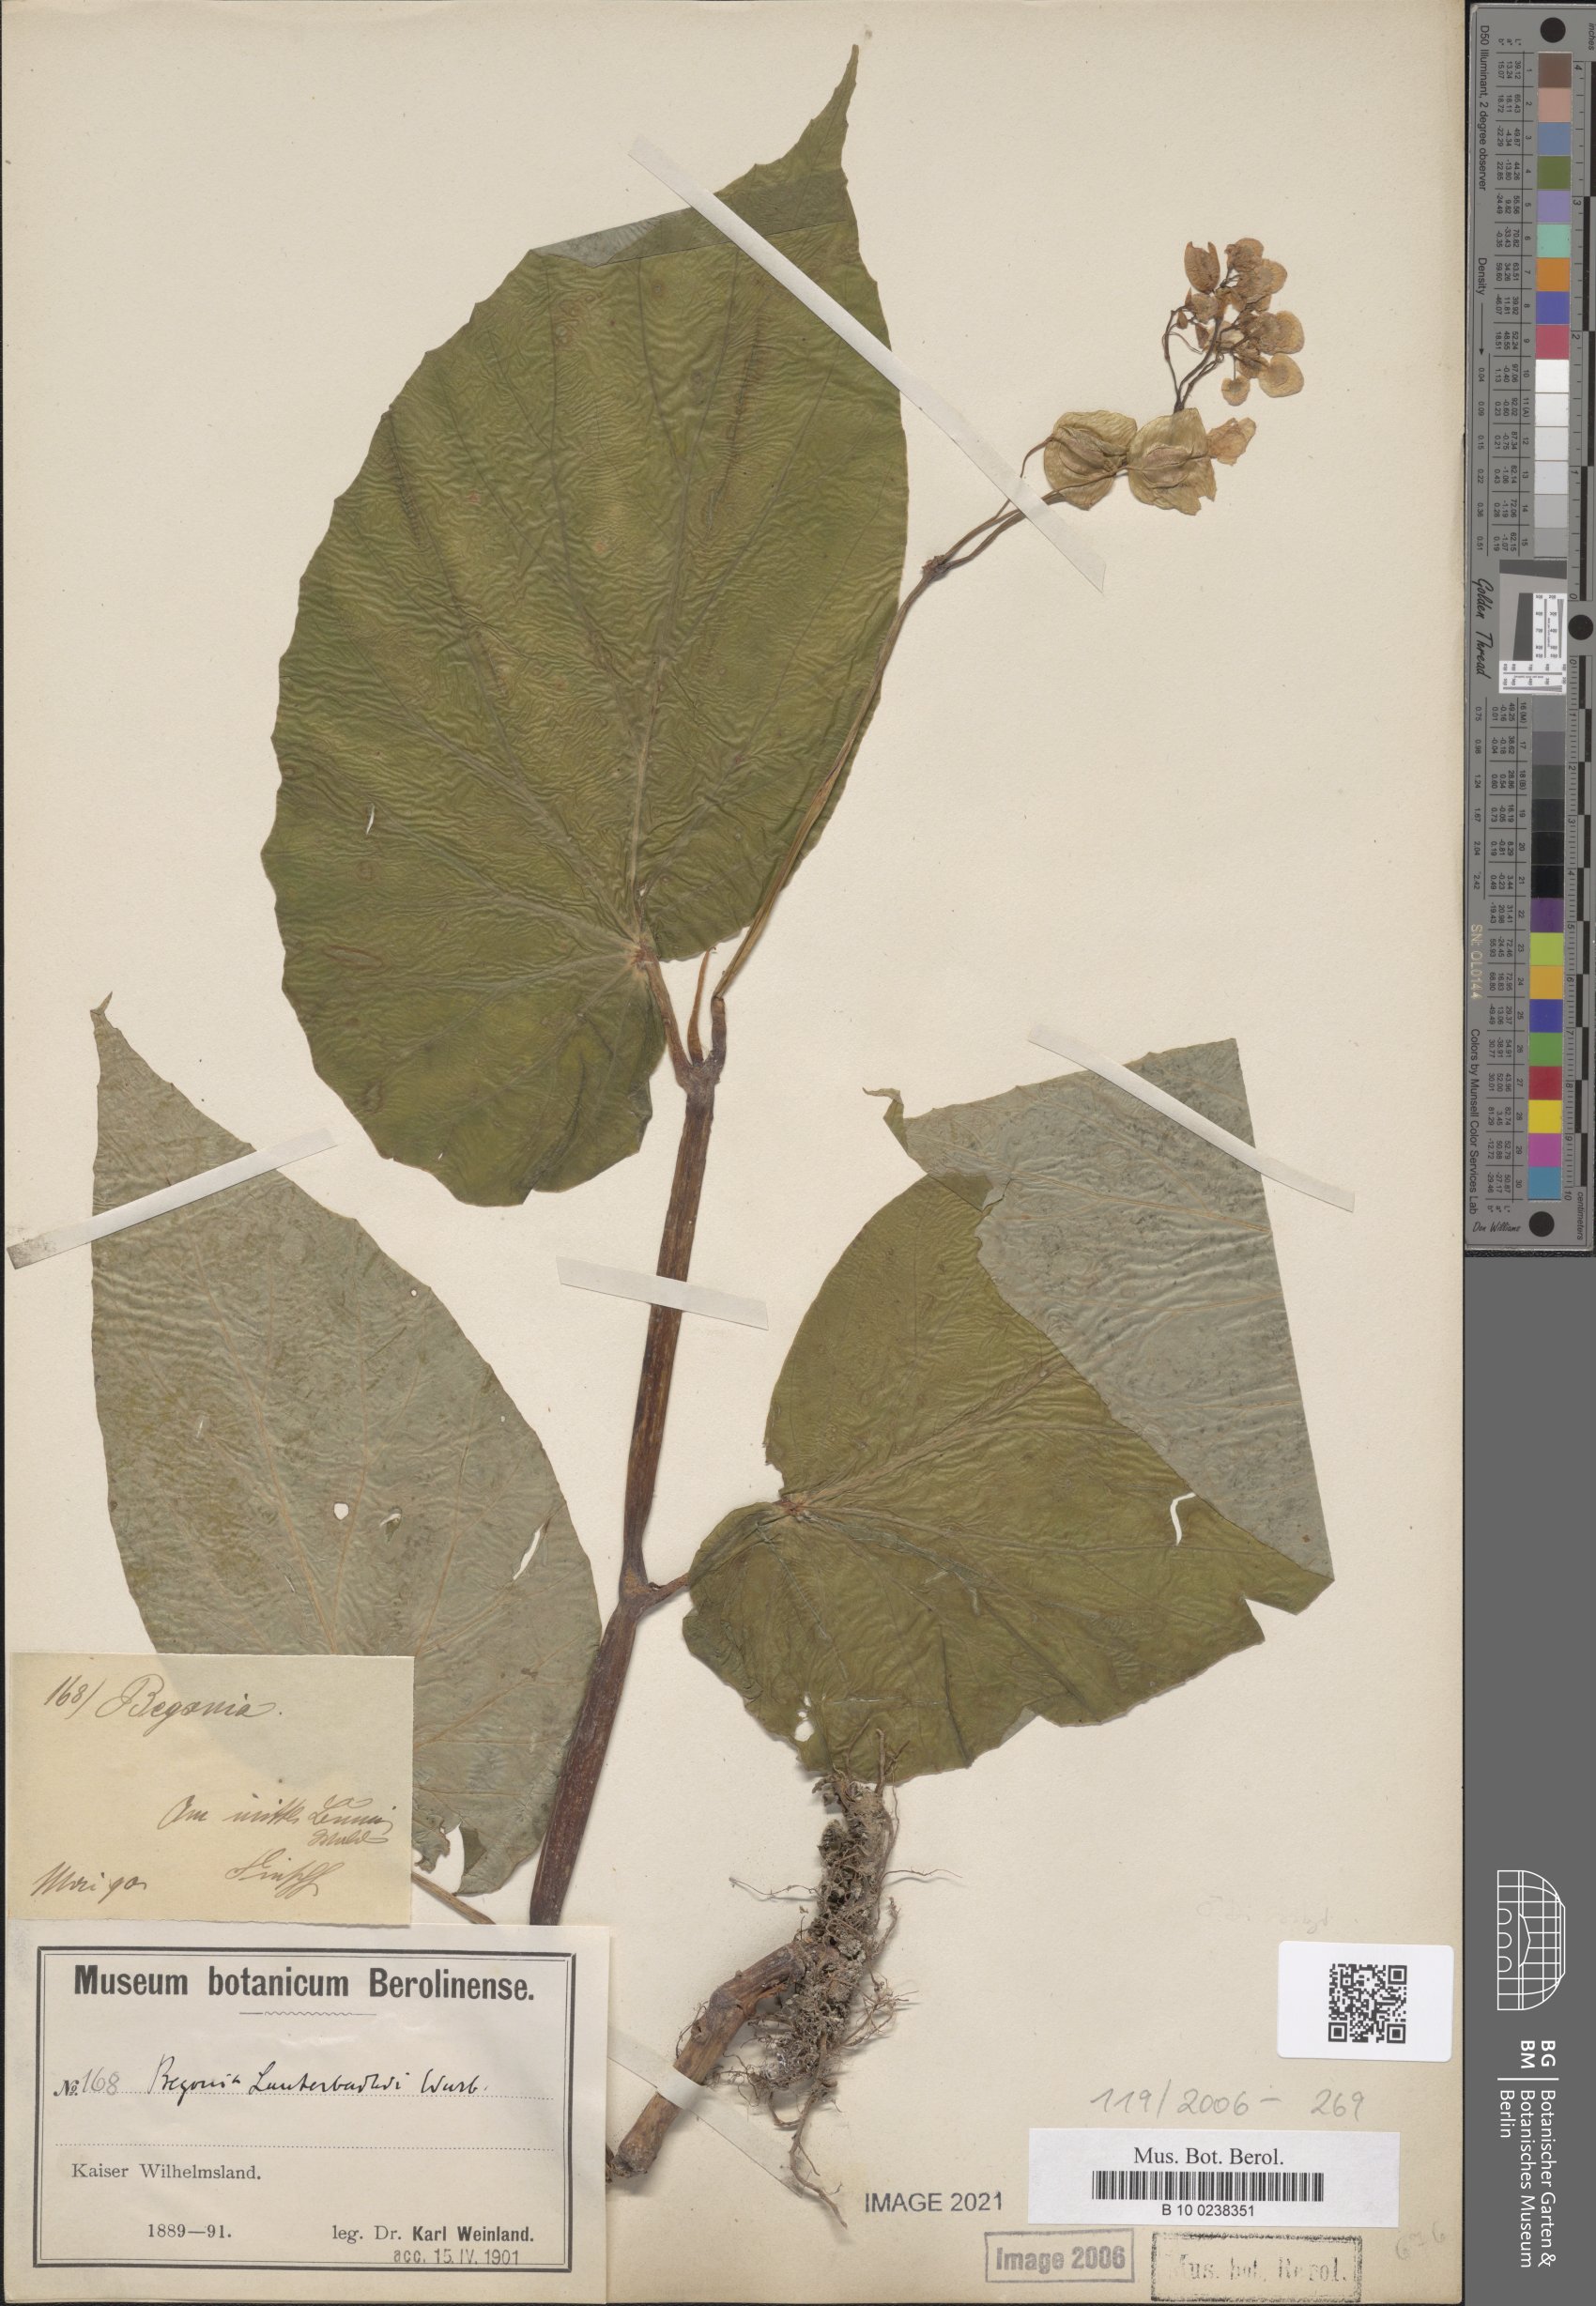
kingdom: Plantae
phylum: Tracheophyta
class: Magnoliopsida
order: Cucurbitales
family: Begoniaceae
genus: Begonia
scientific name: Begonia lauterbachii
